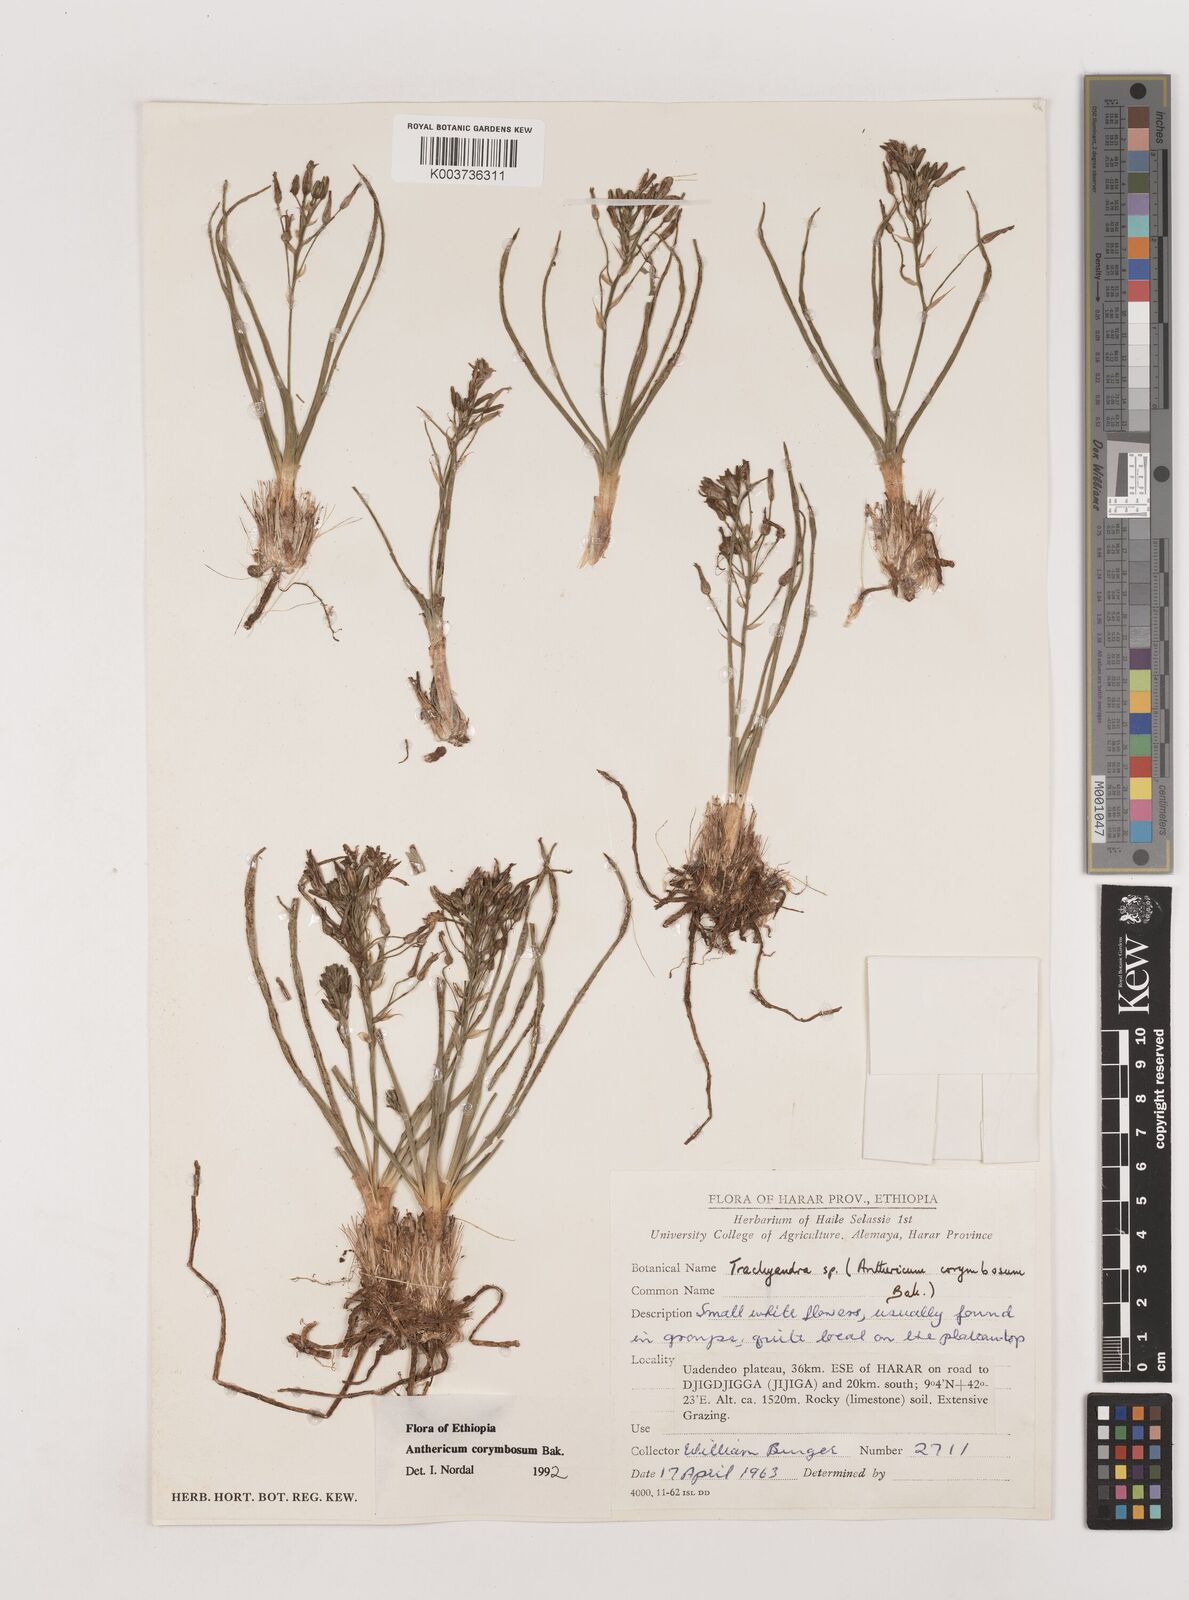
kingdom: Plantae
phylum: Tracheophyta
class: Liliopsida
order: Asparagales
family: Asparagaceae
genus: Anthericum
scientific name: Anthericum corymbosum
